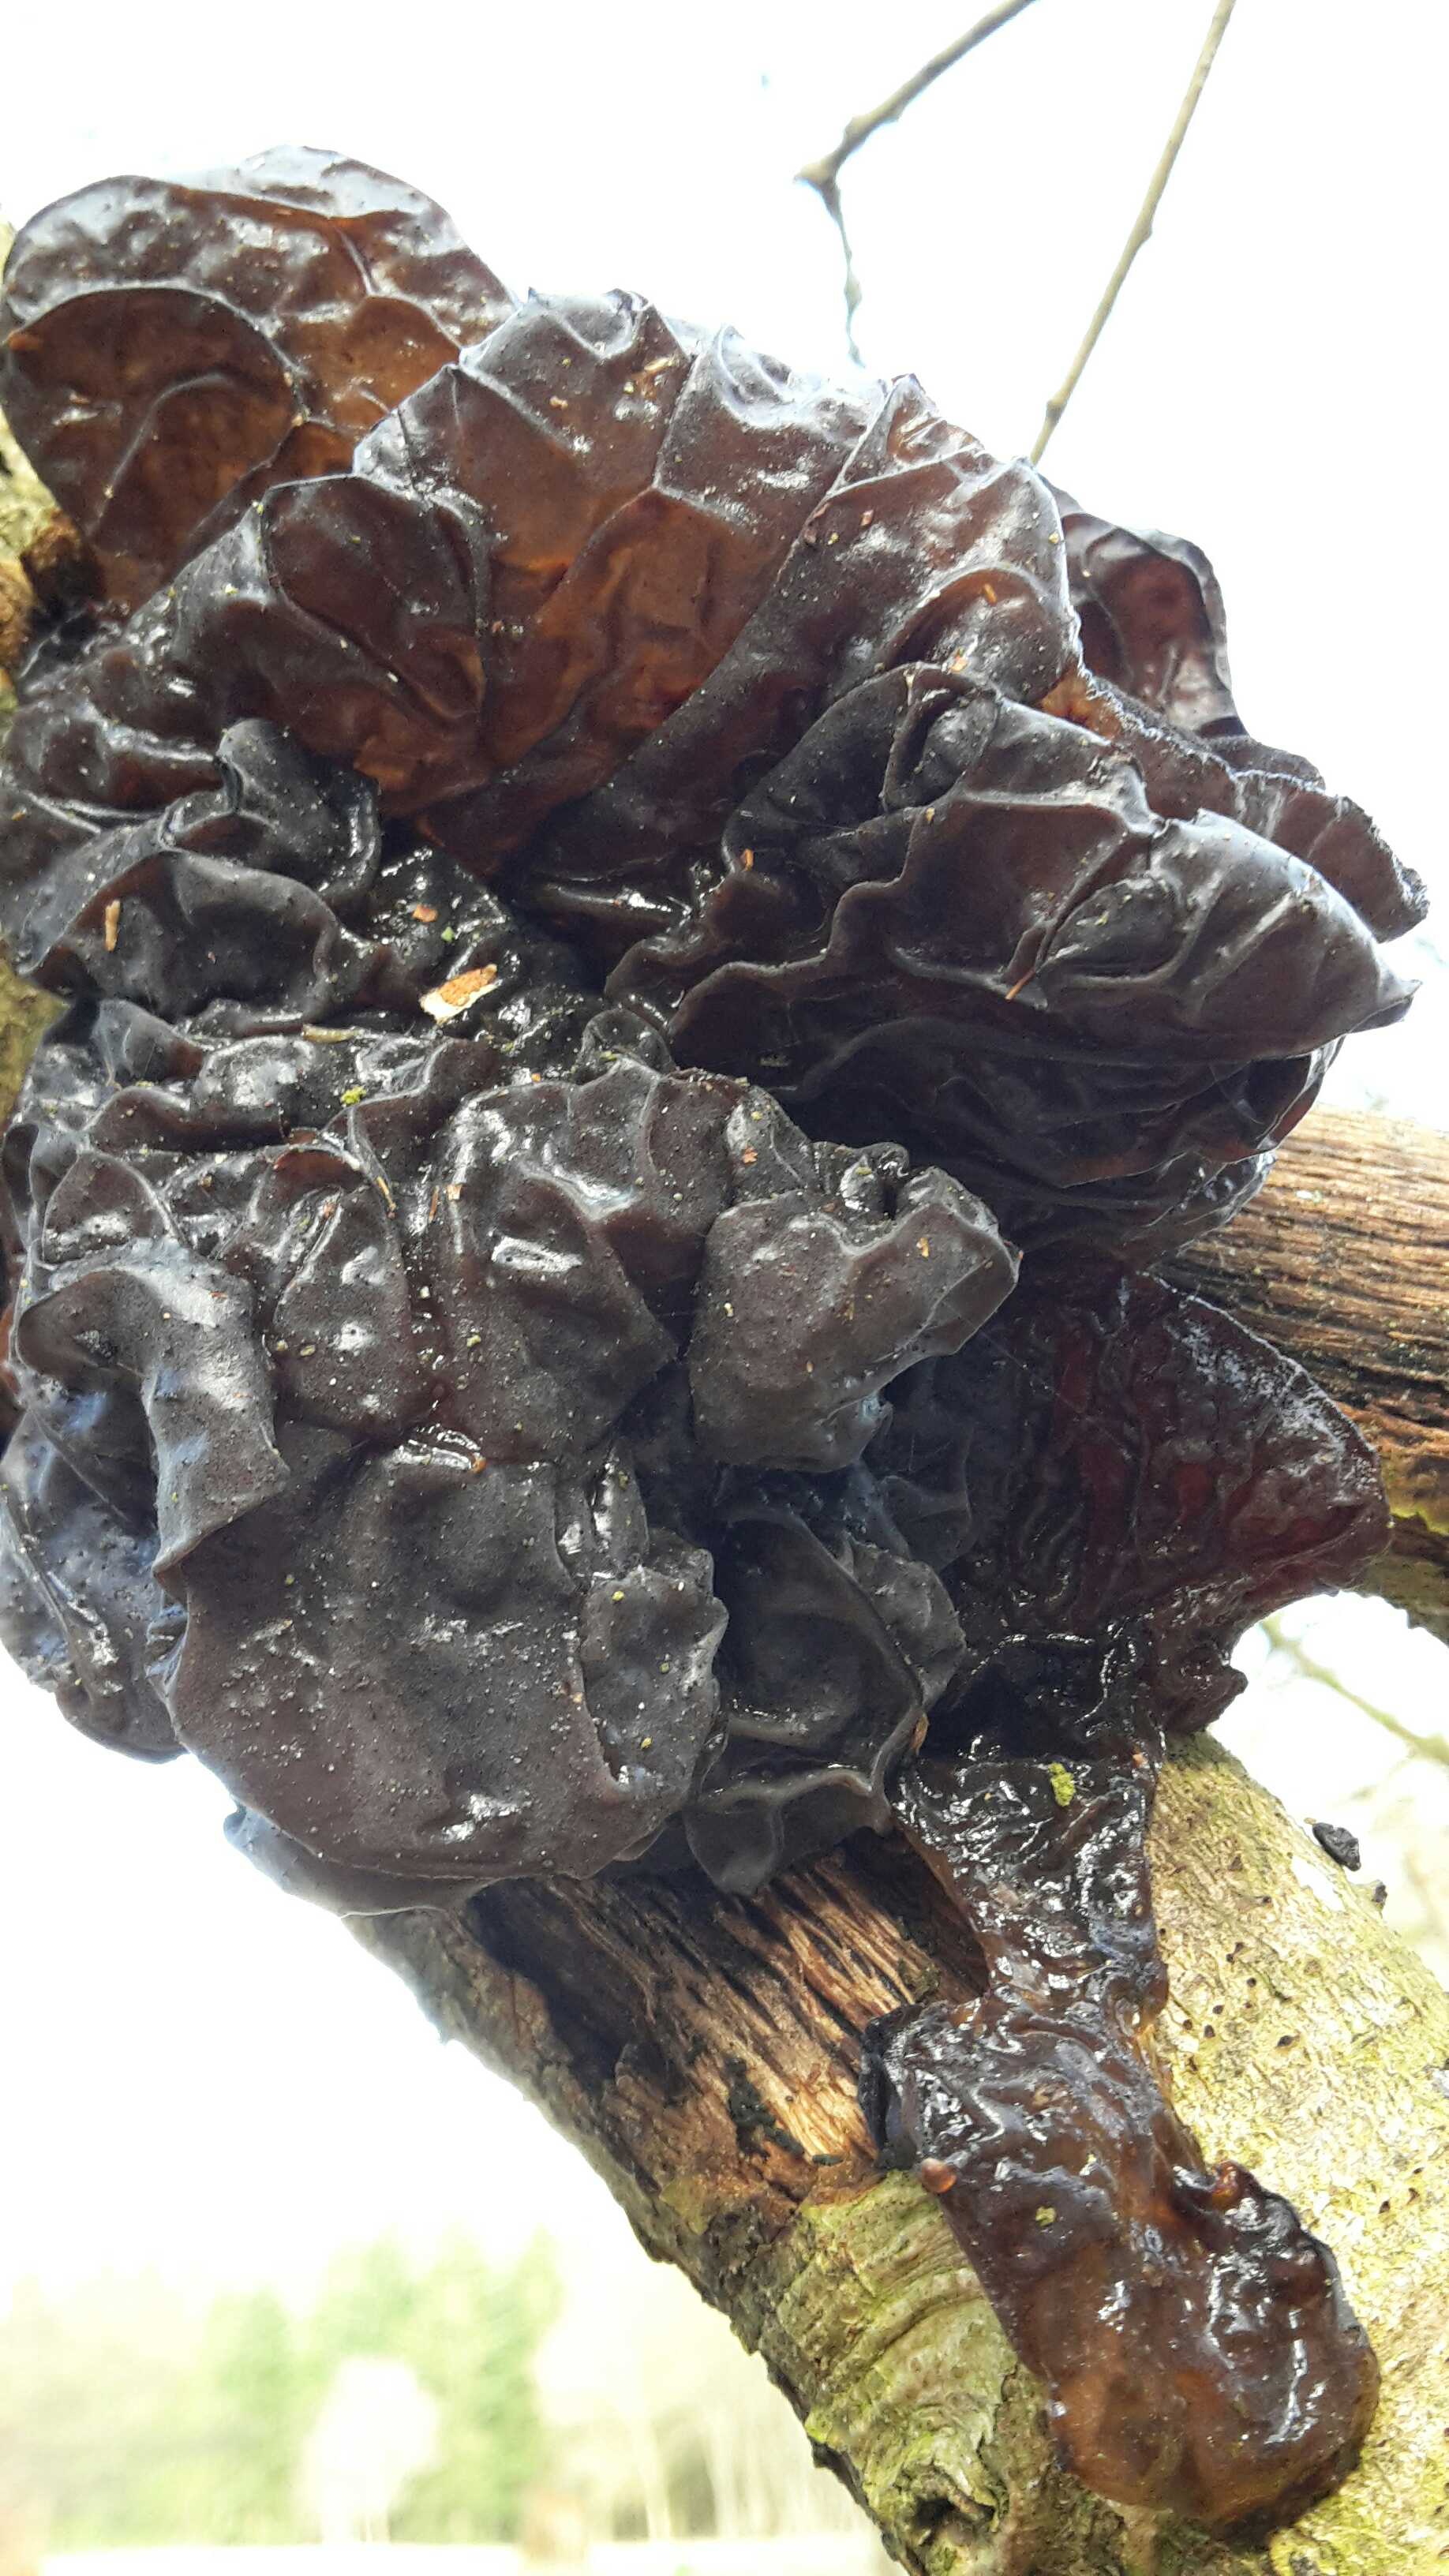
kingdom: Fungi
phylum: Basidiomycota
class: Agaricomycetes
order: Auriculariales
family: Auriculariaceae
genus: Exidia
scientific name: Exidia glandulosa
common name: ege-bævretop
